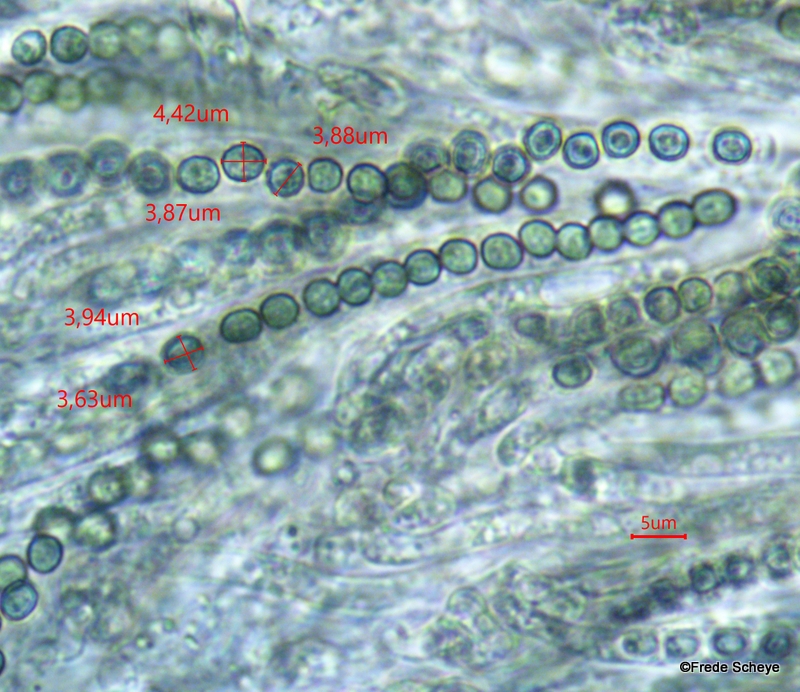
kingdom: Fungi
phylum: Ascomycota
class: Sordariomycetes
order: Hypocreales
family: Hypocreaceae
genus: Trichoderma
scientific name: Trichoderma aureoviride
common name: æggegul kødkerne
